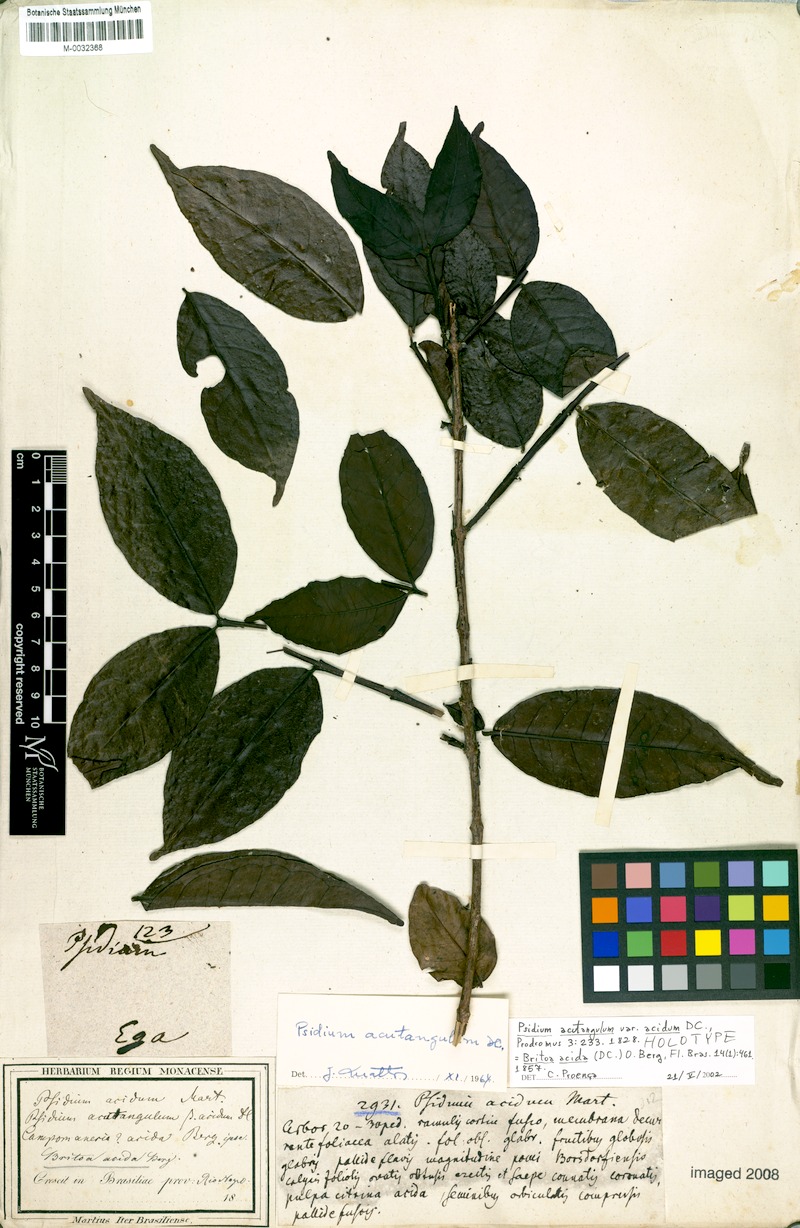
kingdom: Plantae
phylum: Tracheophyta
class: Magnoliopsida
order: Myrtales
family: Myrtaceae
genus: Psidium
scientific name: Psidium acutangulum
